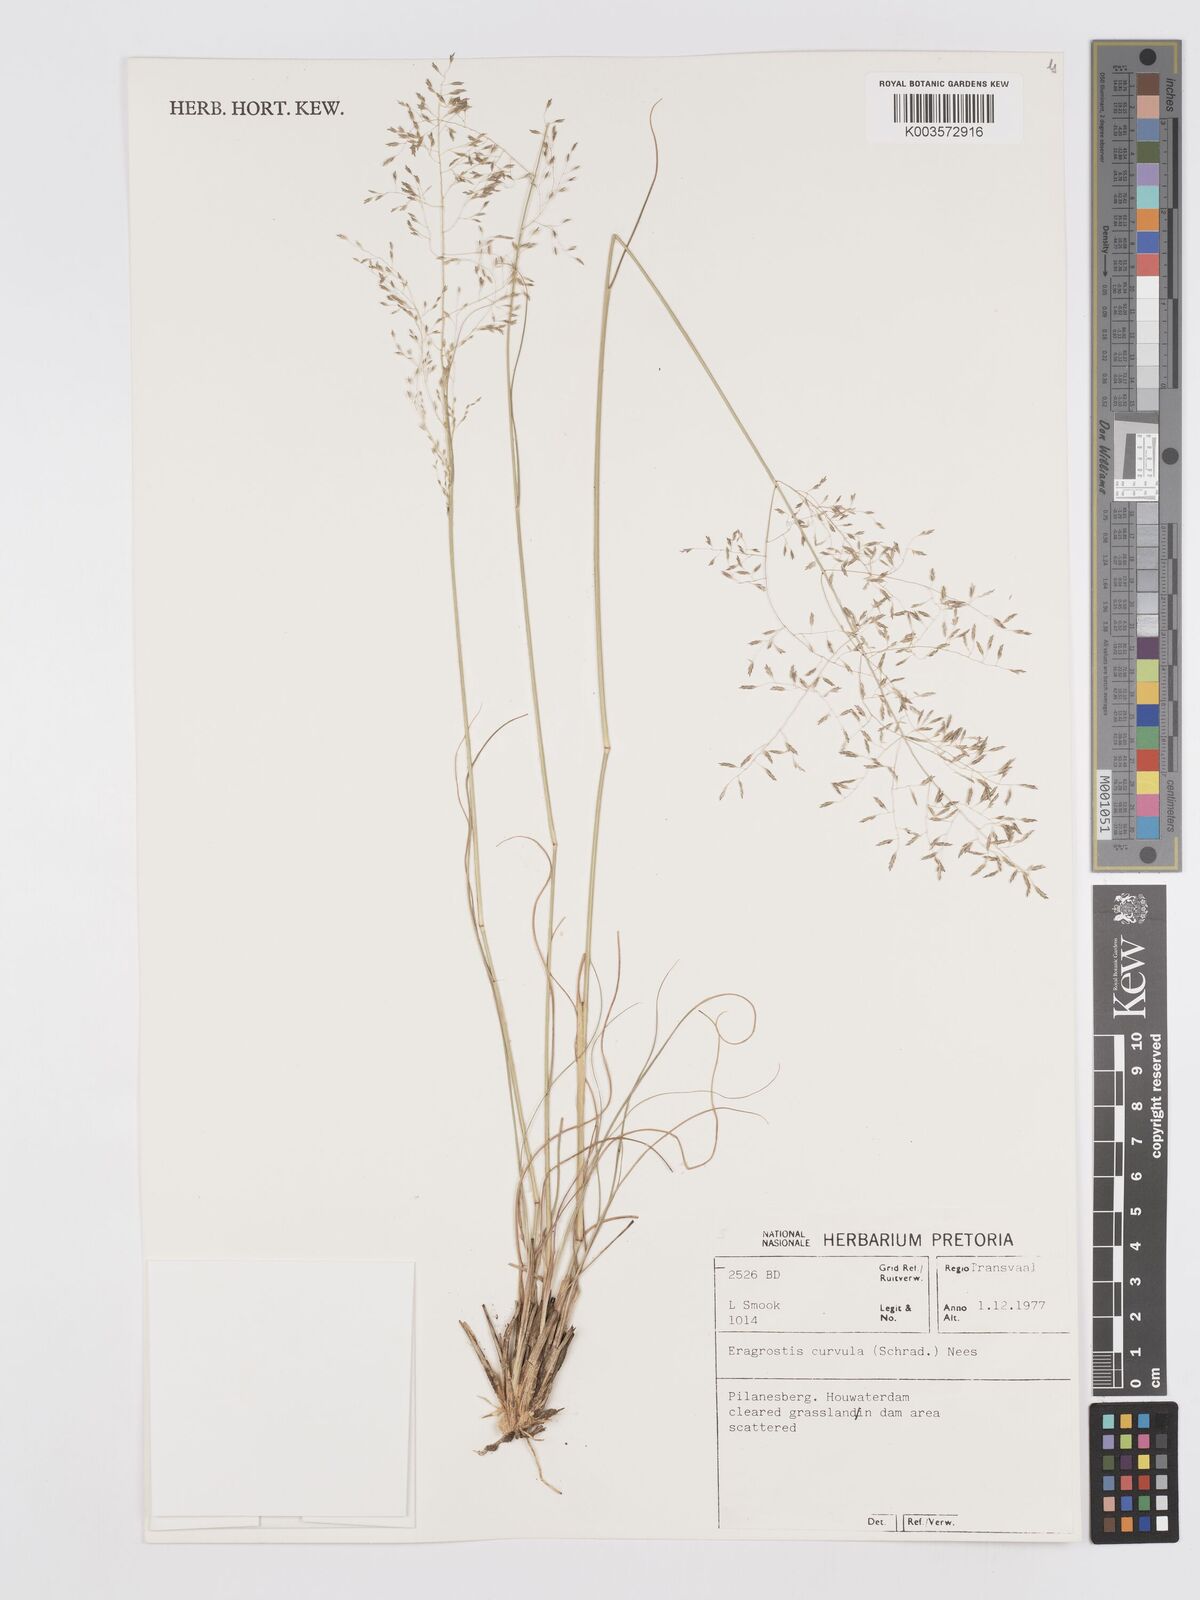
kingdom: Plantae
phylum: Tracheophyta
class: Liliopsida
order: Poales
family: Poaceae
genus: Eragrostis
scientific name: Eragrostis curvula
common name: African love-grass
